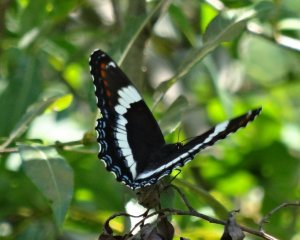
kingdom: Animalia
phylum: Arthropoda
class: Insecta
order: Lepidoptera
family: Nymphalidae
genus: Limenitis
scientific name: Limenitis arthemis
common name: Red-spotted Admiral
